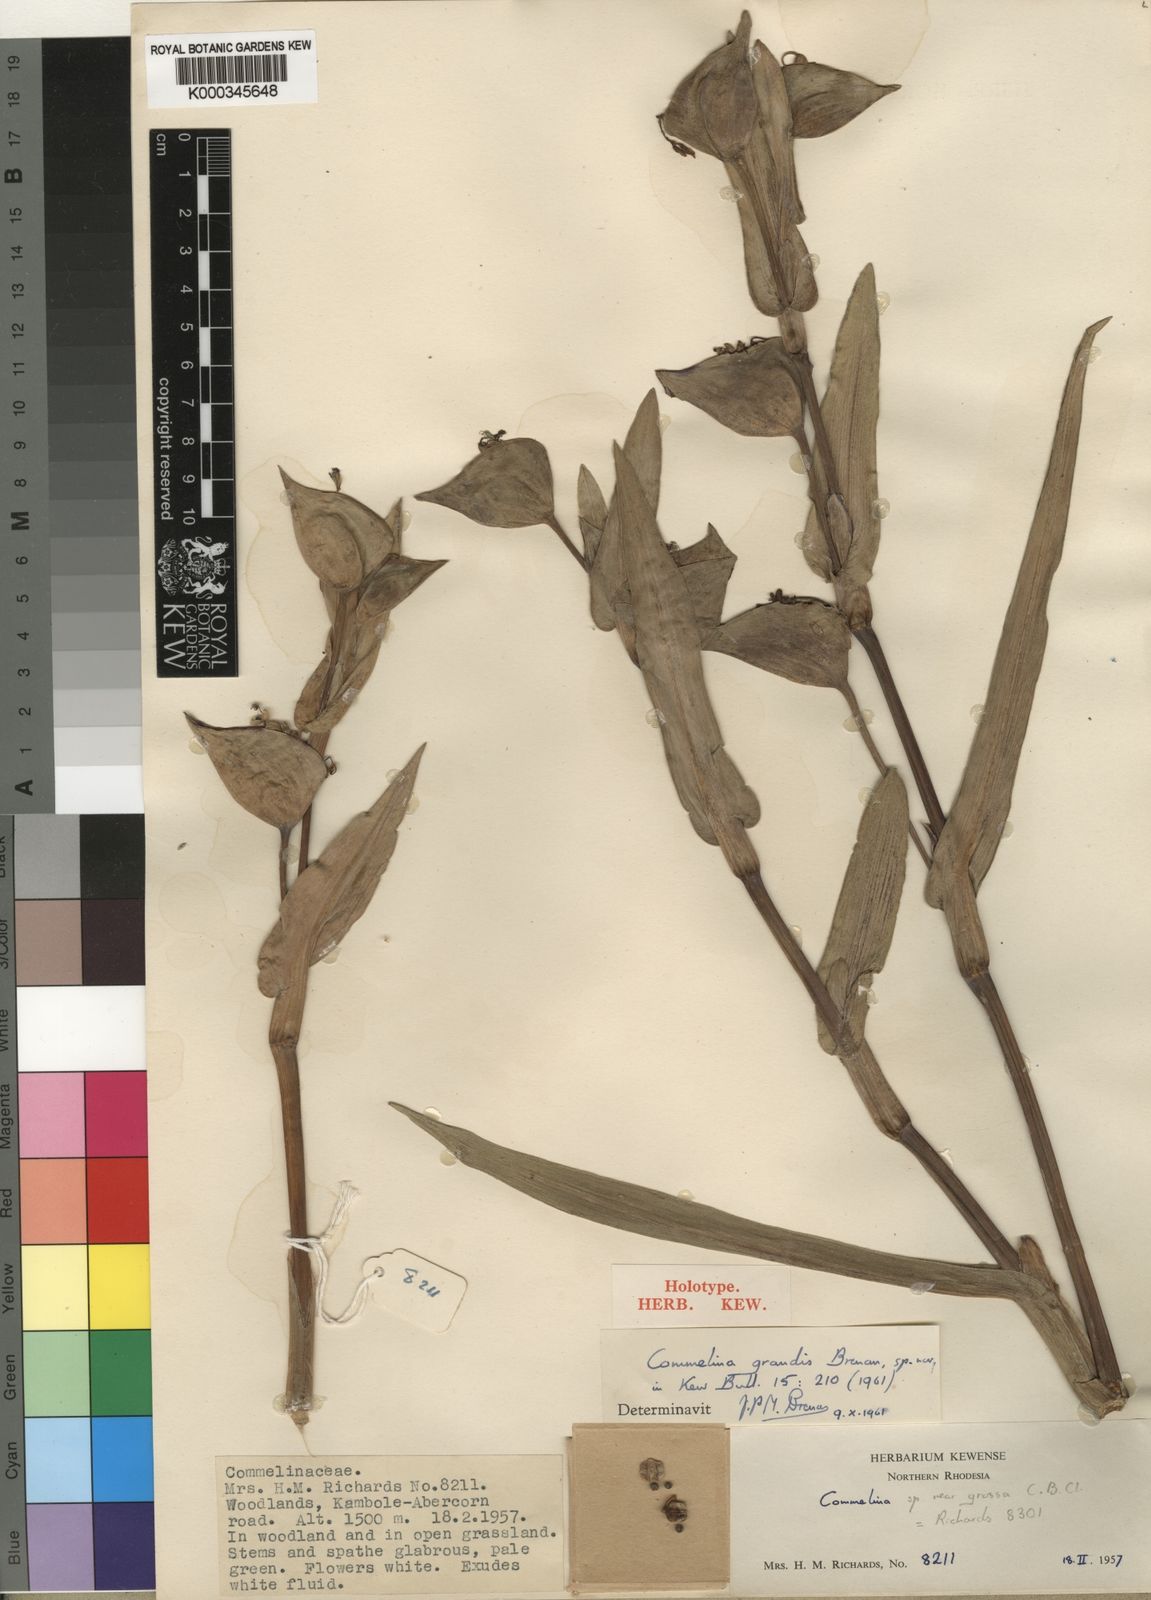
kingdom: Plantae
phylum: Tracheophyta
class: Liliopsida
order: Commelinales
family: Commelinaceae
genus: Commelina
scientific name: Commelina grandis
